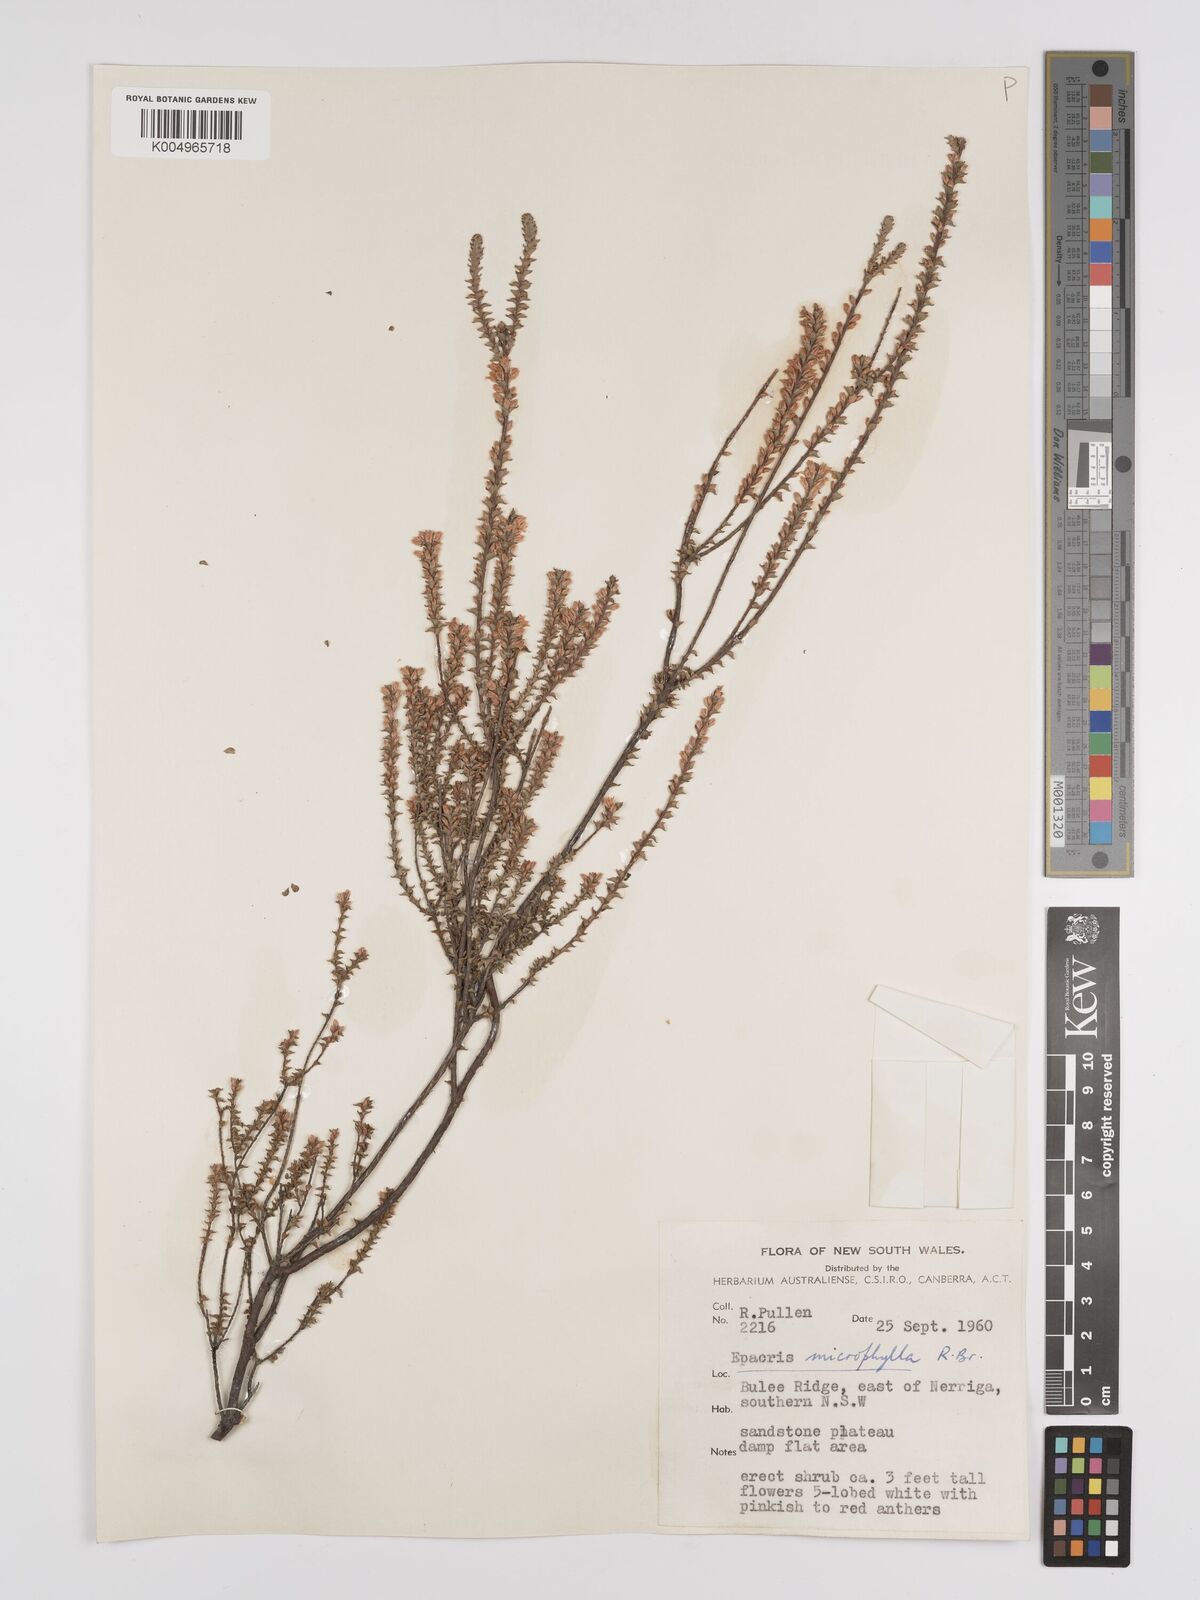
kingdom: Plantae
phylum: Tracheophyta
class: Magnoliopsida
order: Ericales
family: Ericaceae
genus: Epacris
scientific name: Epacris
